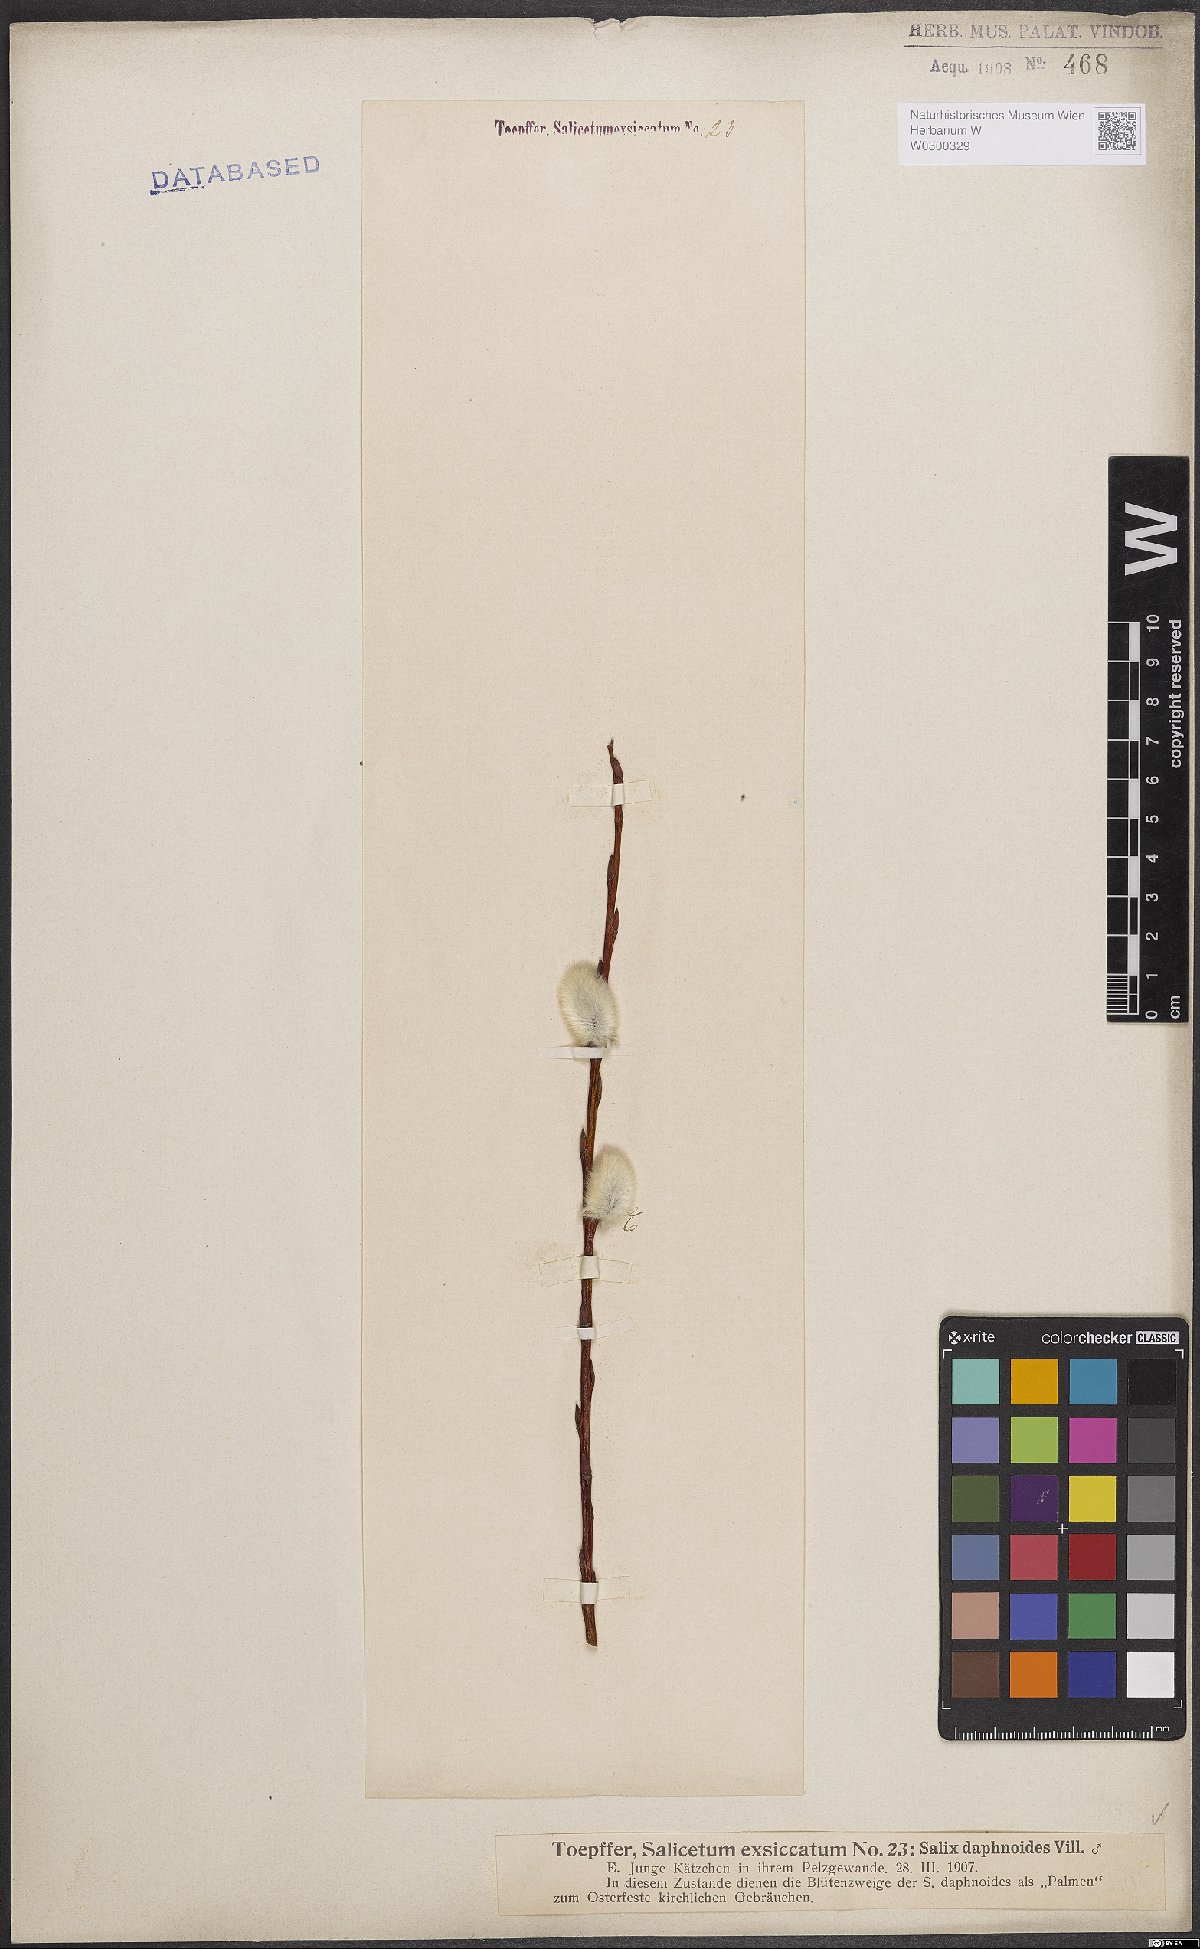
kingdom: Plantae
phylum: Tracheophyta
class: Magnoliopsida
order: Malpighiales
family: Salicaceae
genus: Salix
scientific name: Salix daphnoides
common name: European violet-willow
